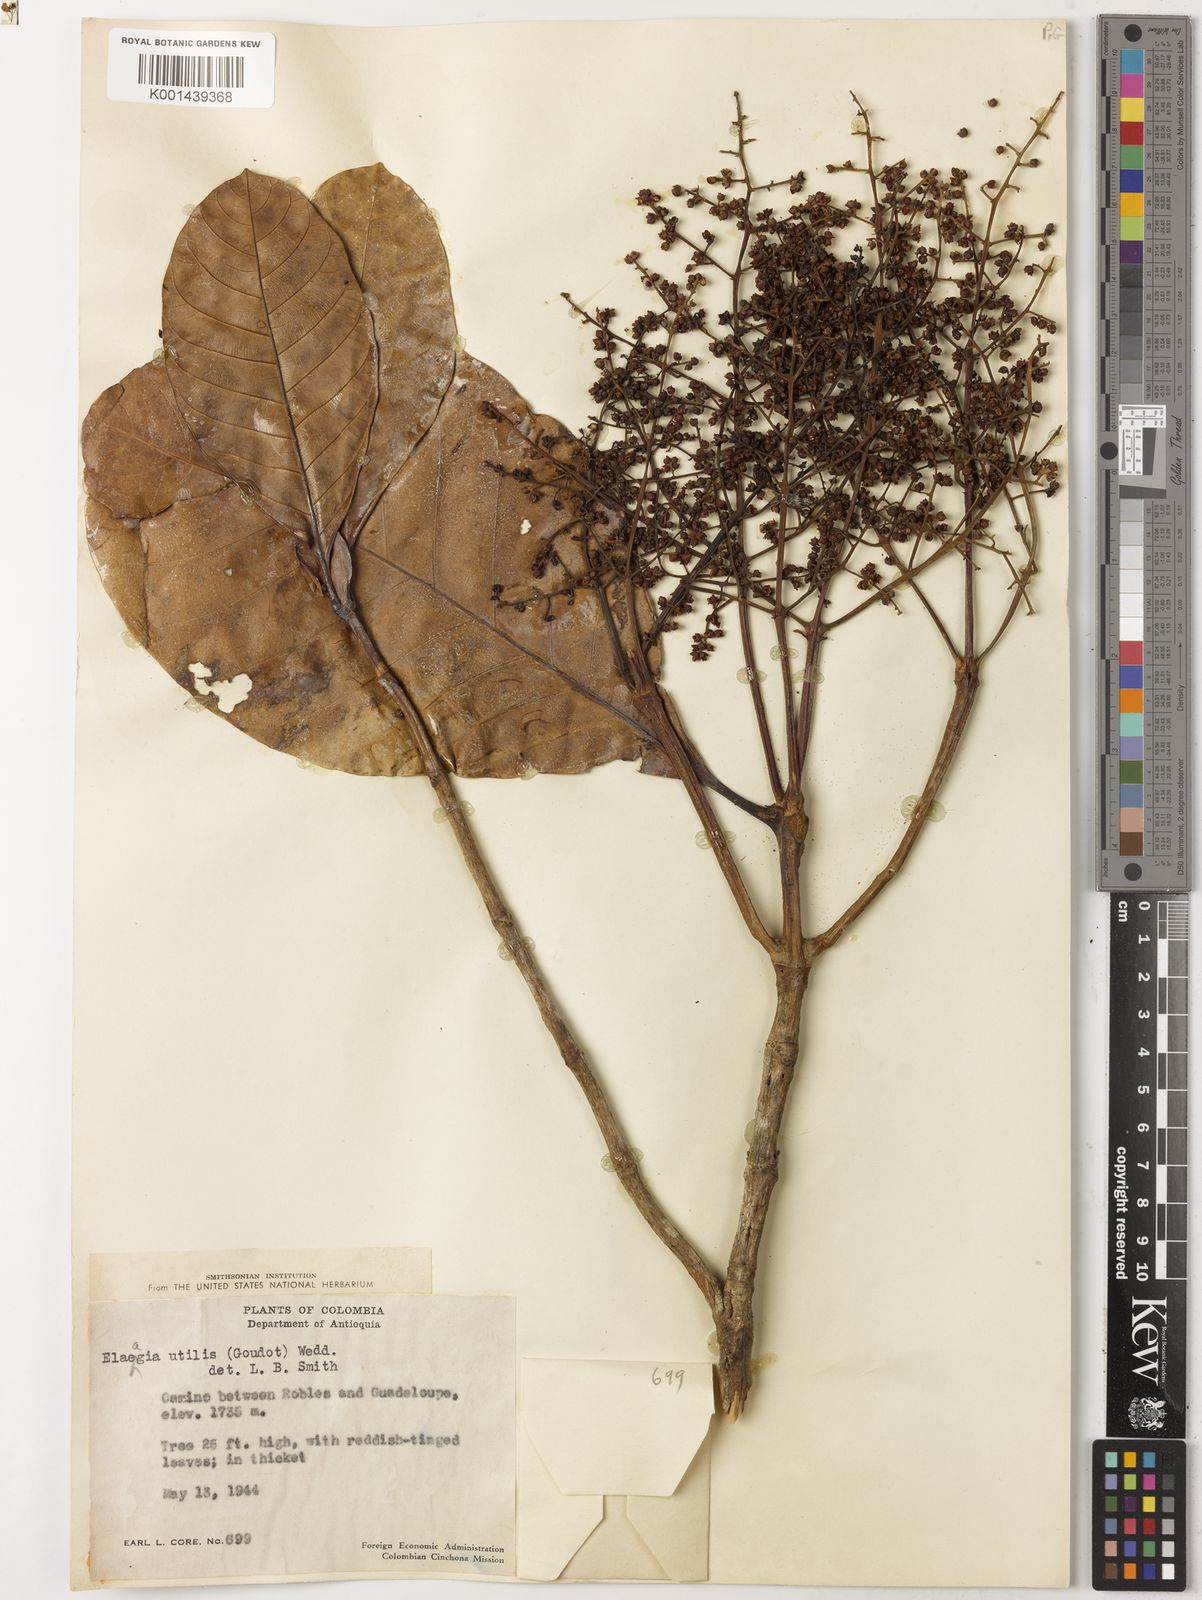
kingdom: Plantae
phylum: Tracheophyta
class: Magnoliopsida
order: Gentianales
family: Rubiaceae
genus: Elaeagia
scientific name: Elaeagia utilis
